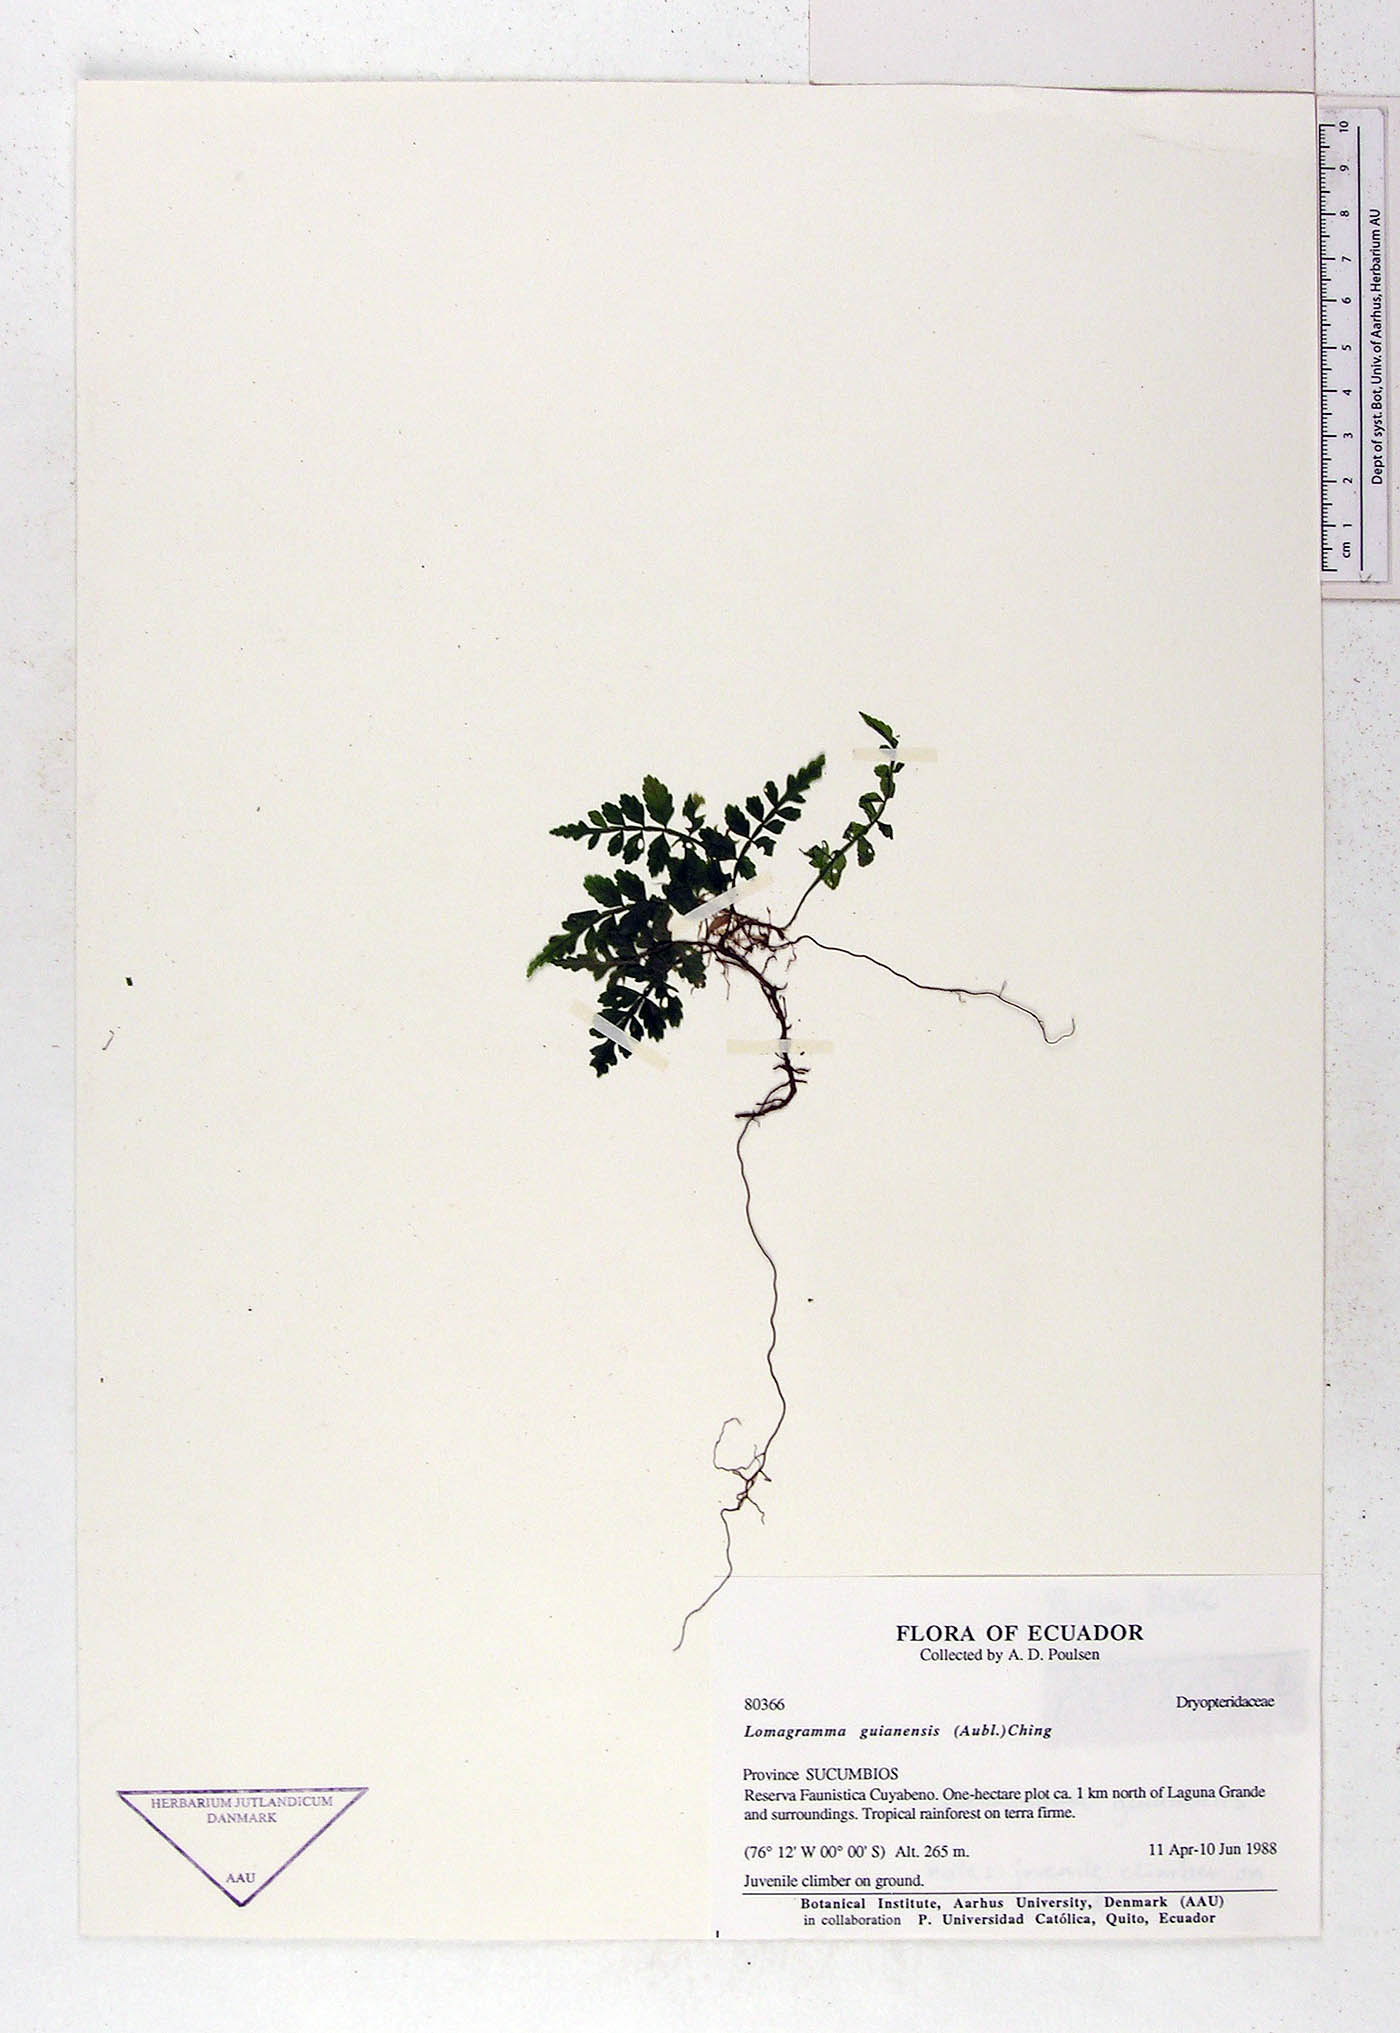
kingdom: Plantae
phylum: Tracheophyta
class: Polypodiopsida
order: Polypodiales
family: Dryopteridaceae
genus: Mickelia
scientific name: Mickelia guianensis
